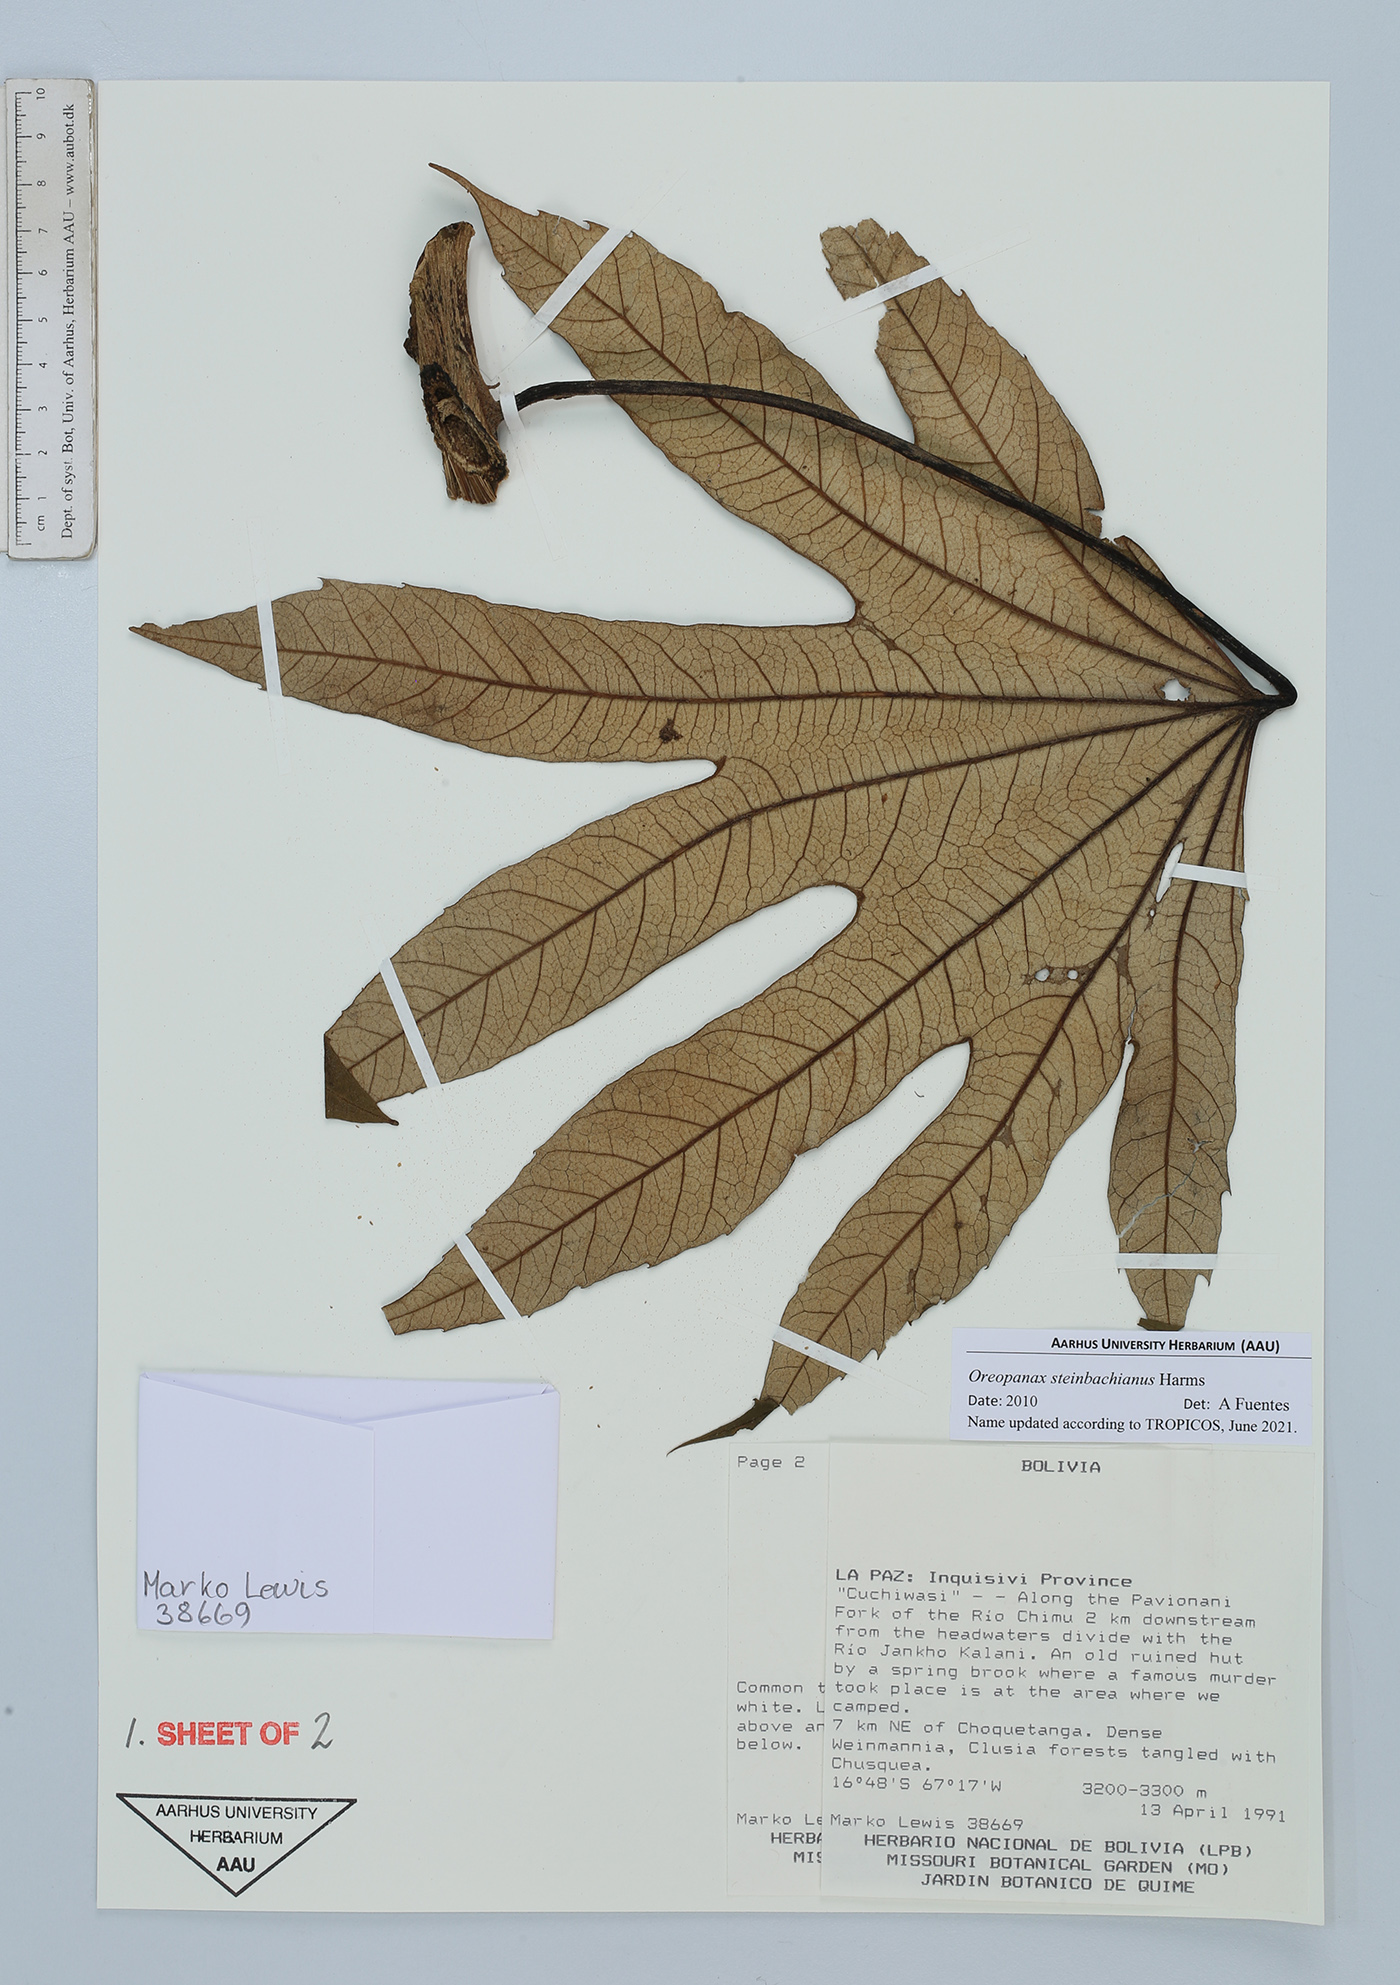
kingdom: Plantae
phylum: Tracheophyta
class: Magnoliopsida
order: Apiales
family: Araliaceae
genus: Oreopanax
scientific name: Oreopanax steinbachianus
